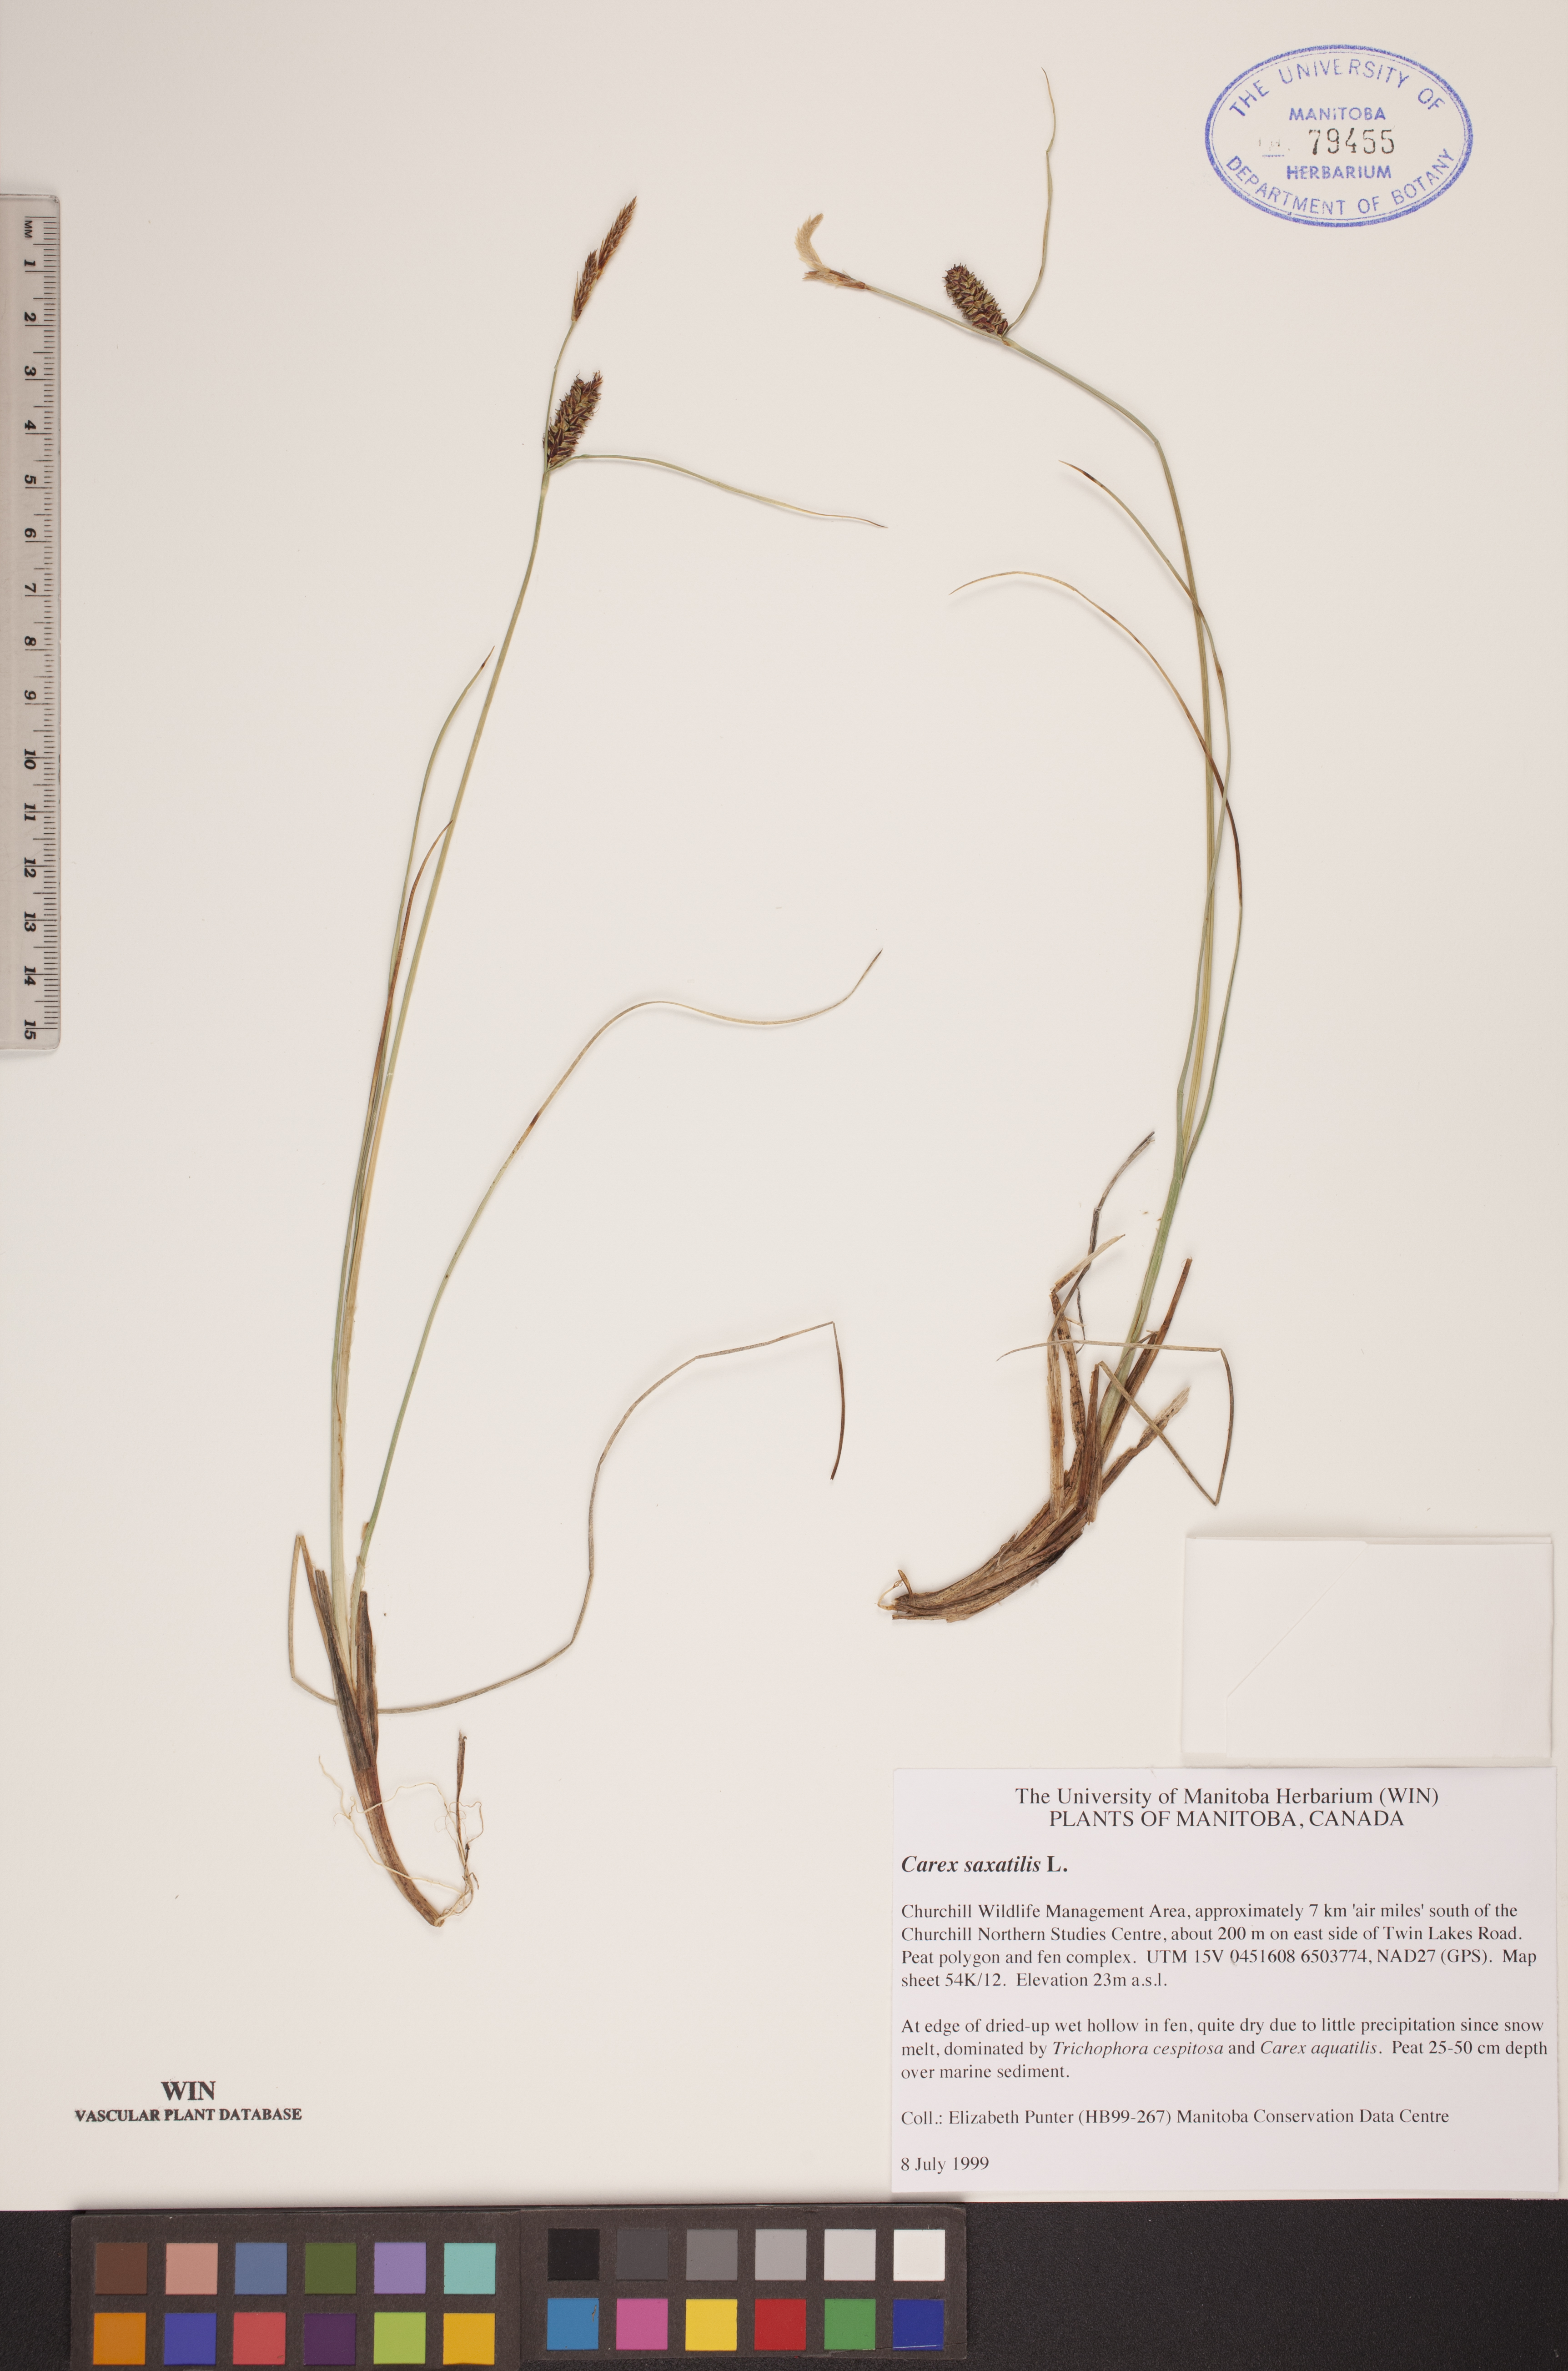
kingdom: Plantae
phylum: Tracheophyta
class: Liliopsida
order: Poales
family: Cyperaceae
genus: Carex
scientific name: Carex saxatilis
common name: Russet sedge
